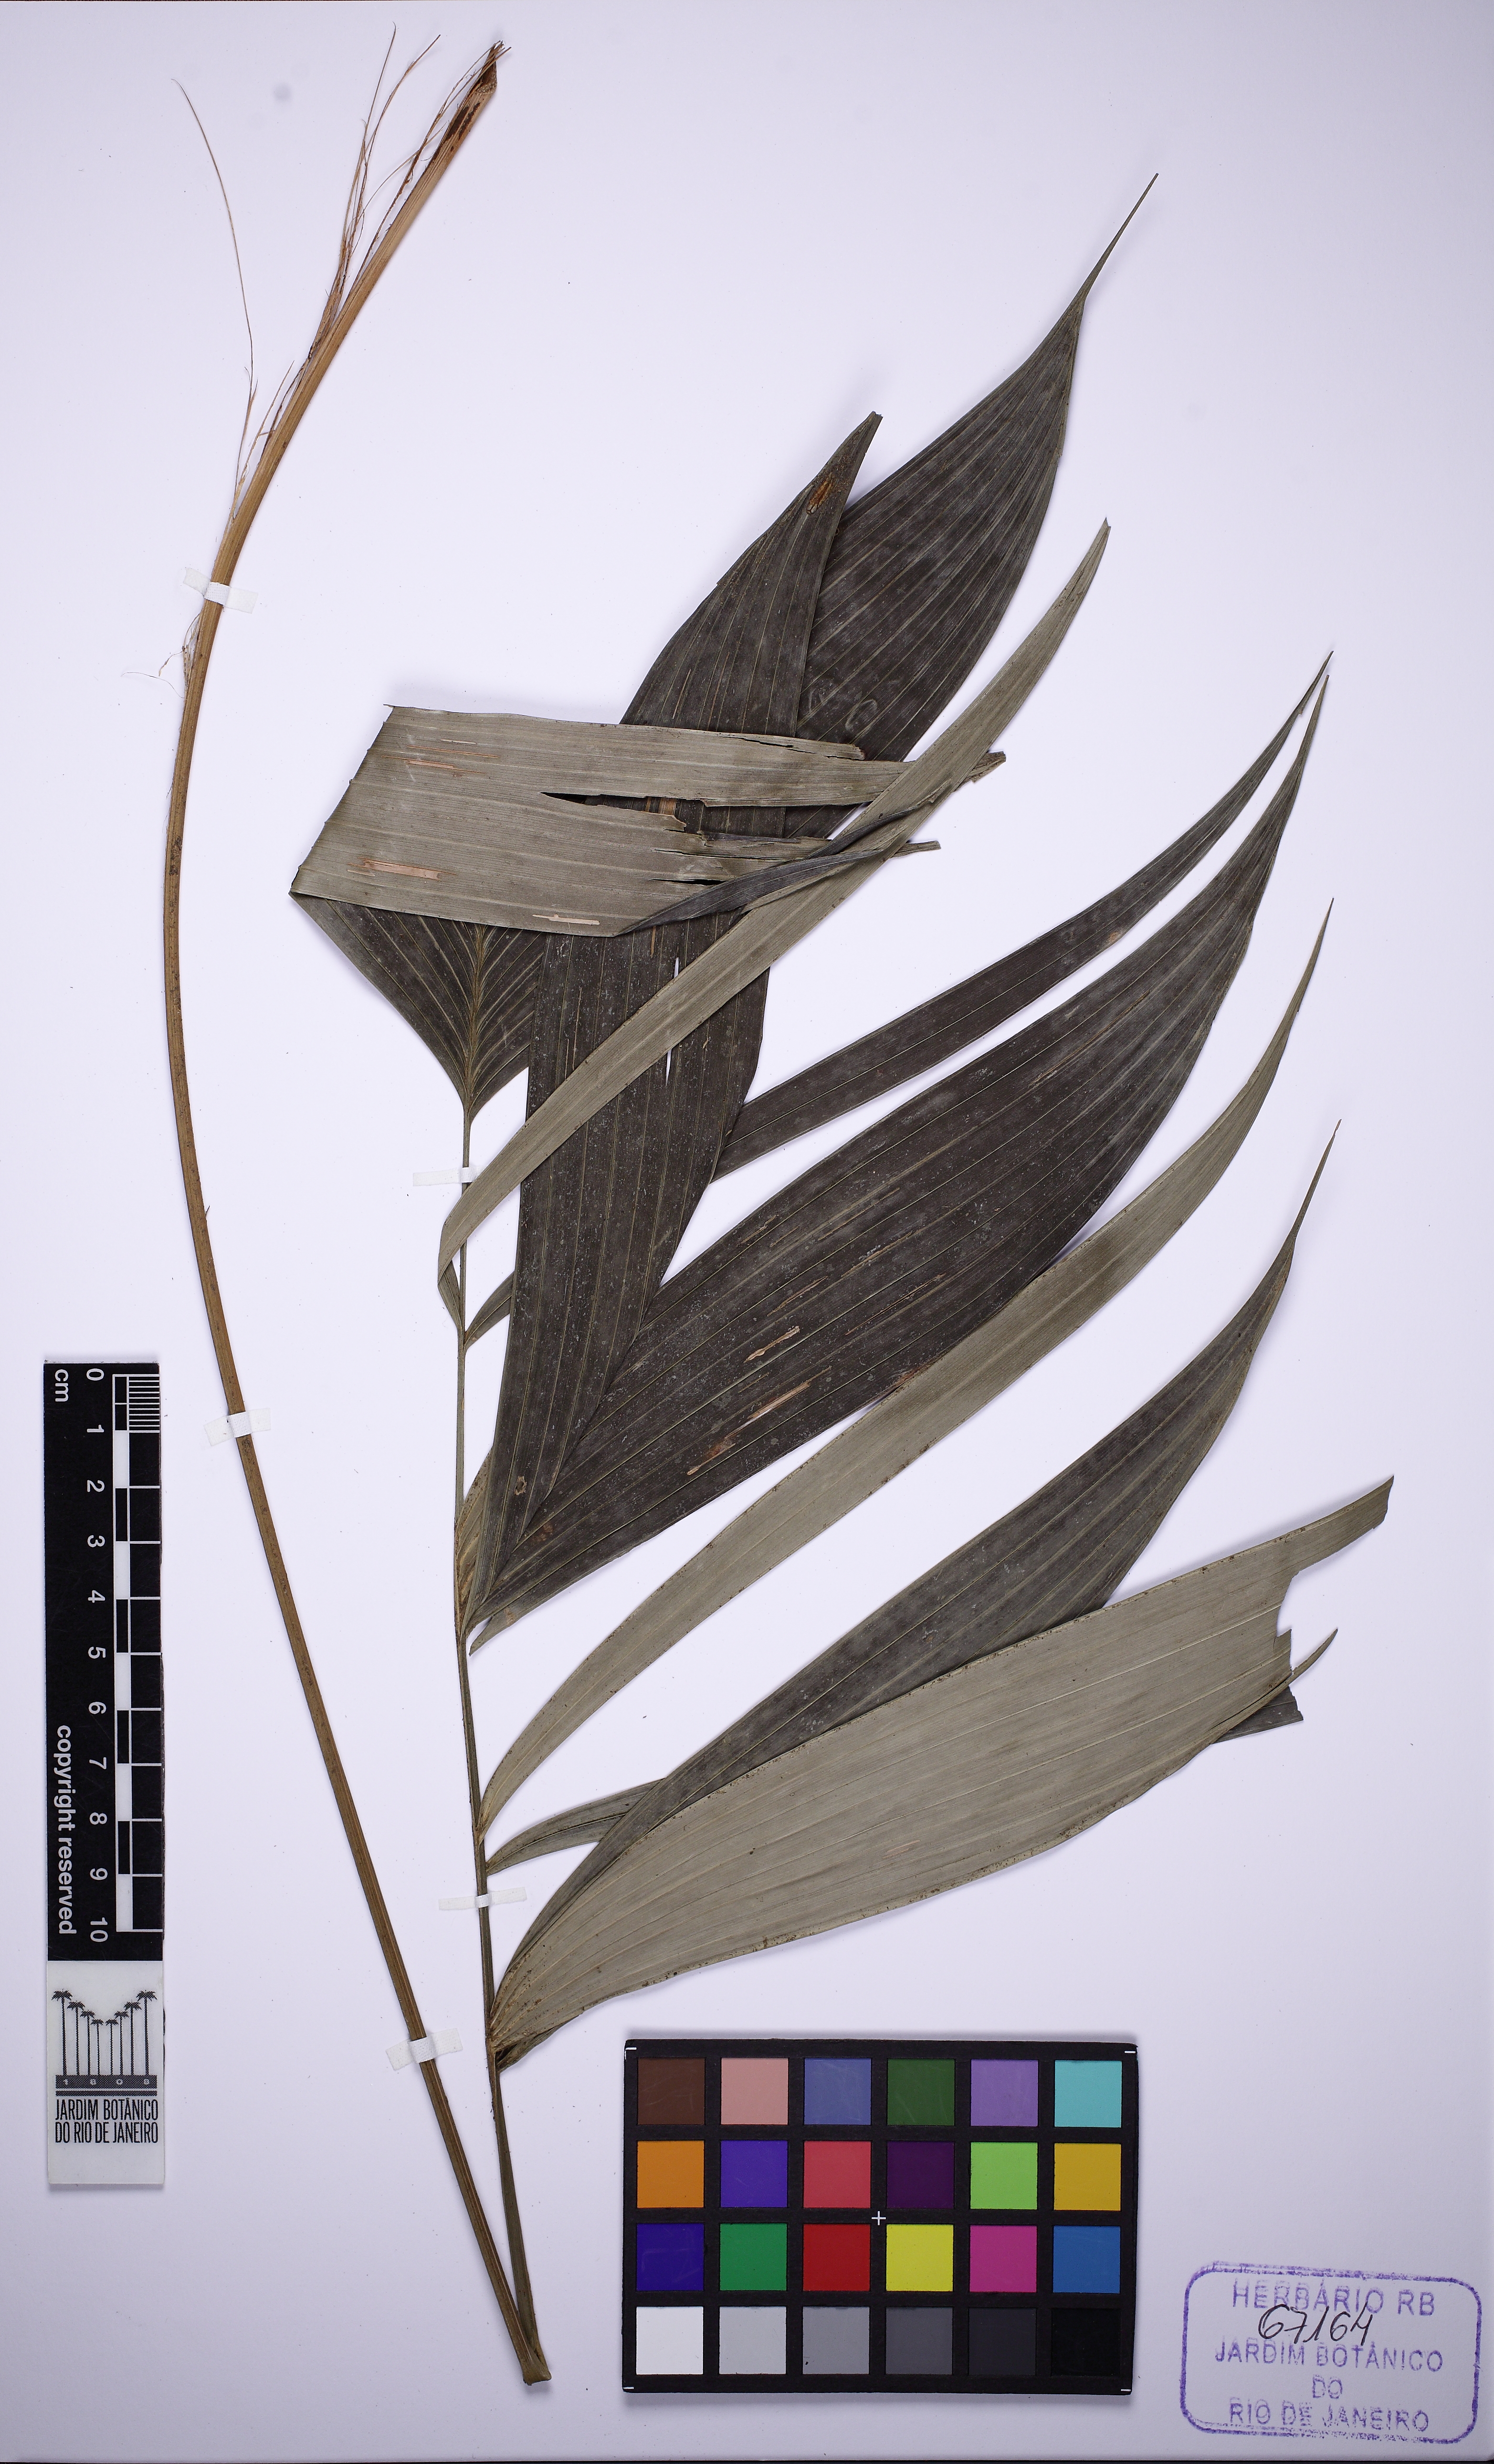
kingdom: Plantae
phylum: Tracheophyta
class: Liliopsida
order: Arecales
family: Arecaceae
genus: Geonoma
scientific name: Geonoma pohliana
